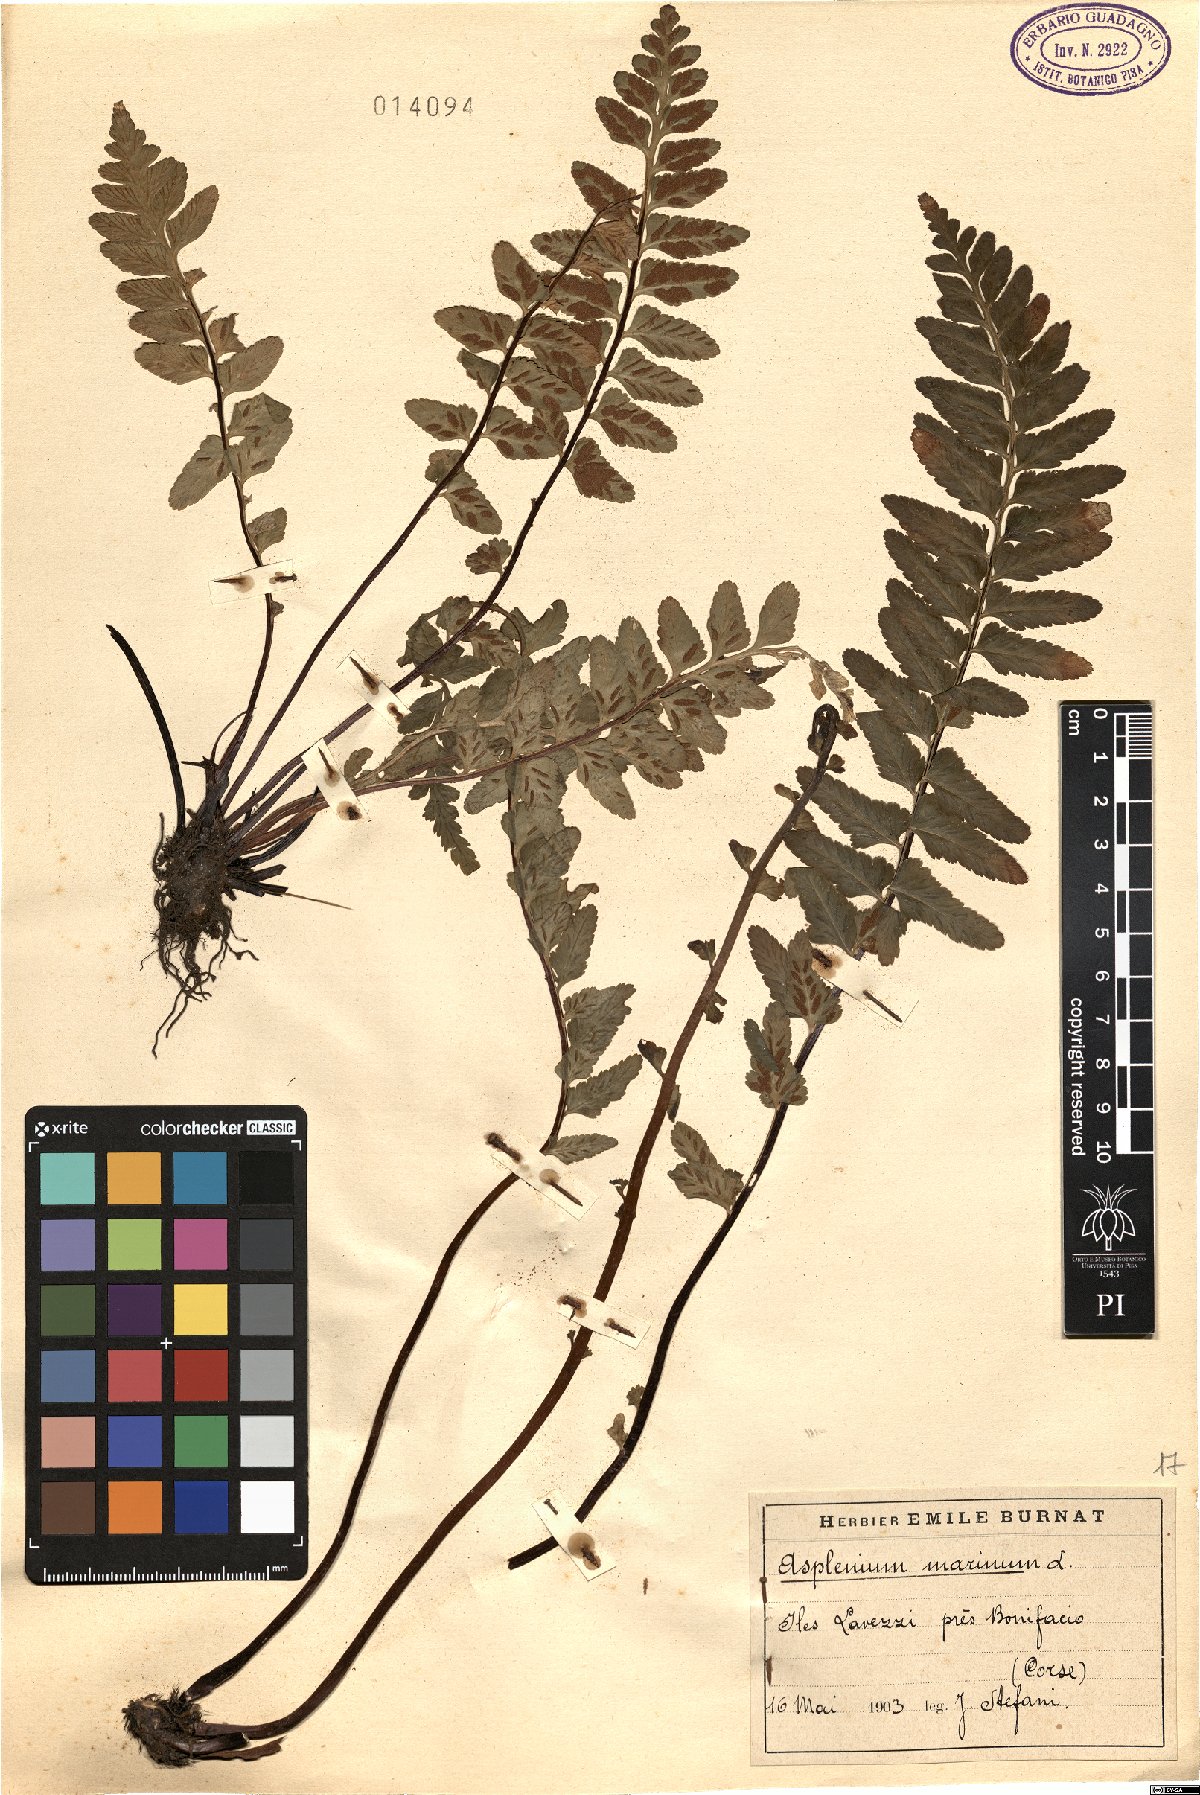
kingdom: Plantae
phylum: Tracheophyta
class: Polypodiopsida
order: Polypodiales
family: Aspleniaceae
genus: Asplenium
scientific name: Asplenium marinum
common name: Sea spleenwort
